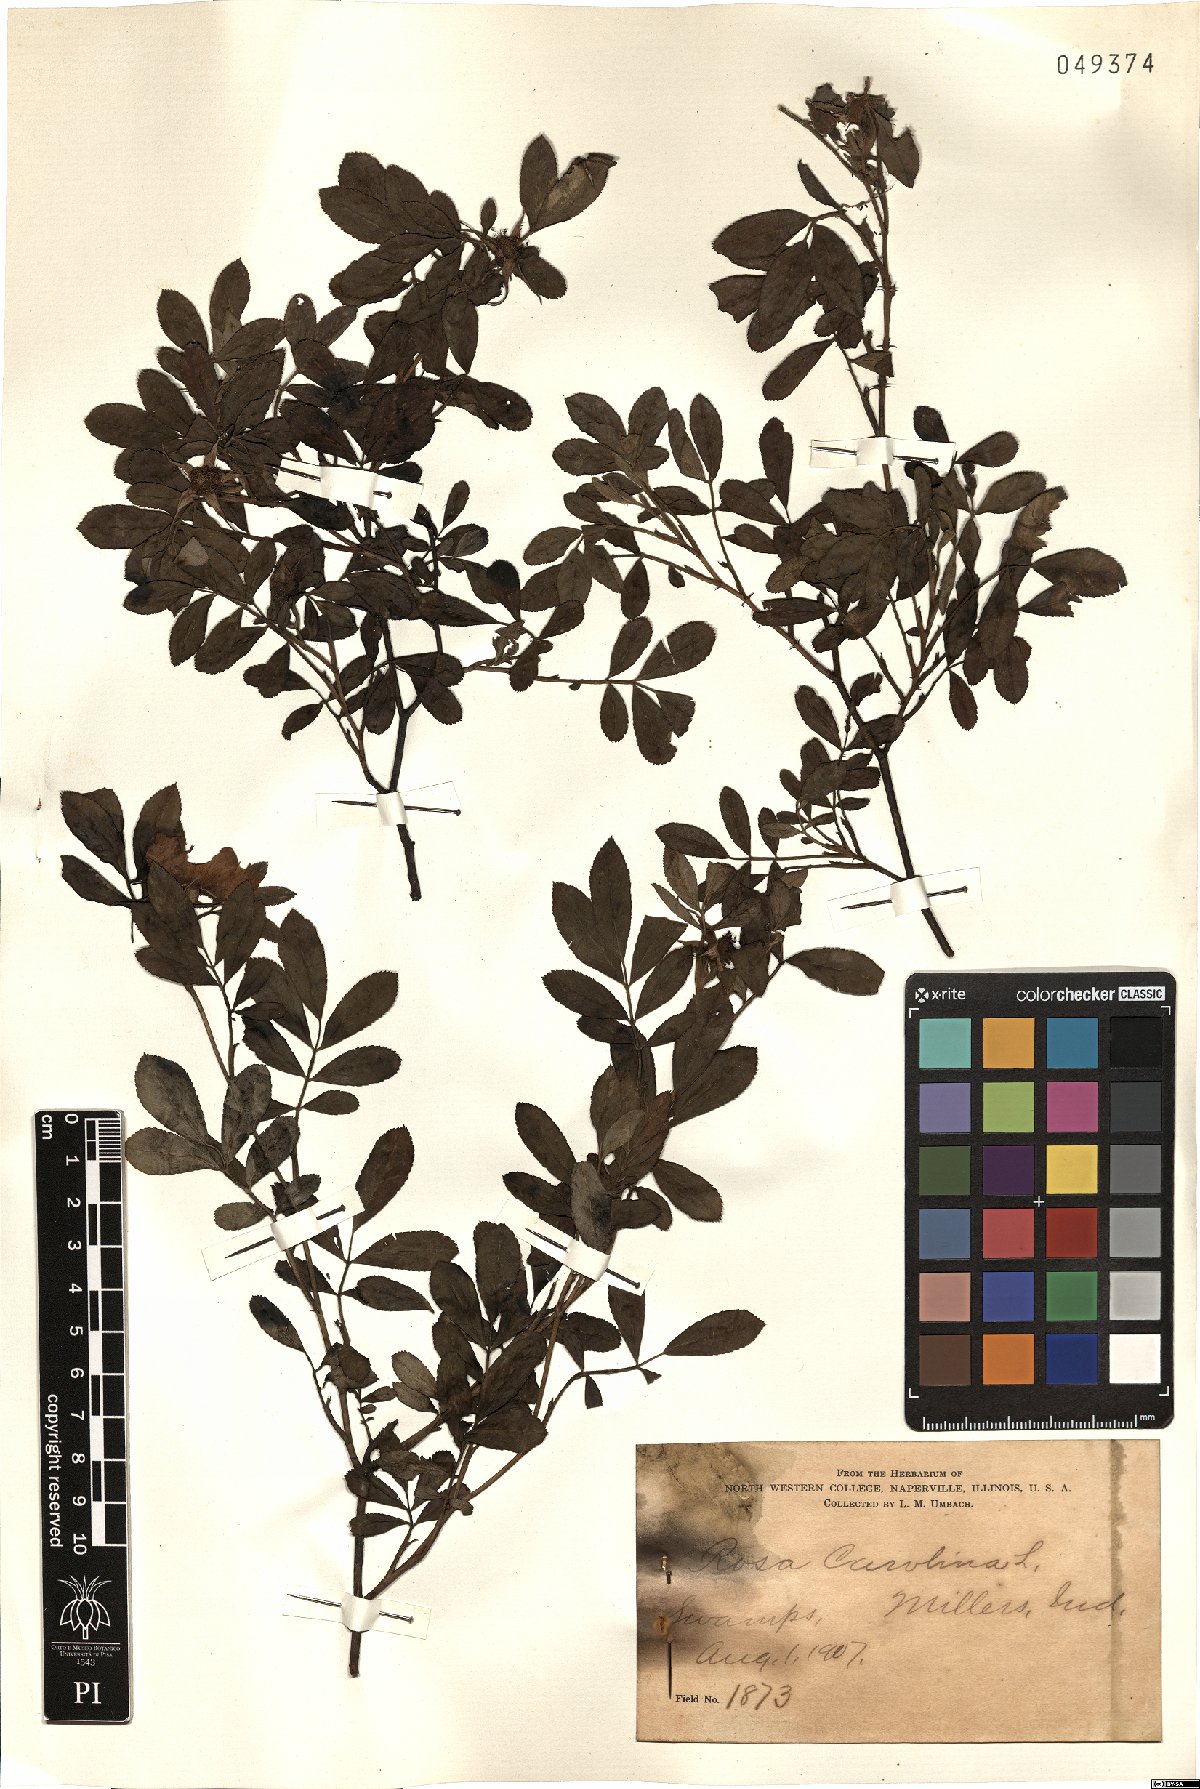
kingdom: Plantae
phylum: Tracheophyta
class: Magnoliopsida
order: Rosales
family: Rosaceae
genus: Rosa
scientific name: Rosa carolina
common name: Pasture rose
